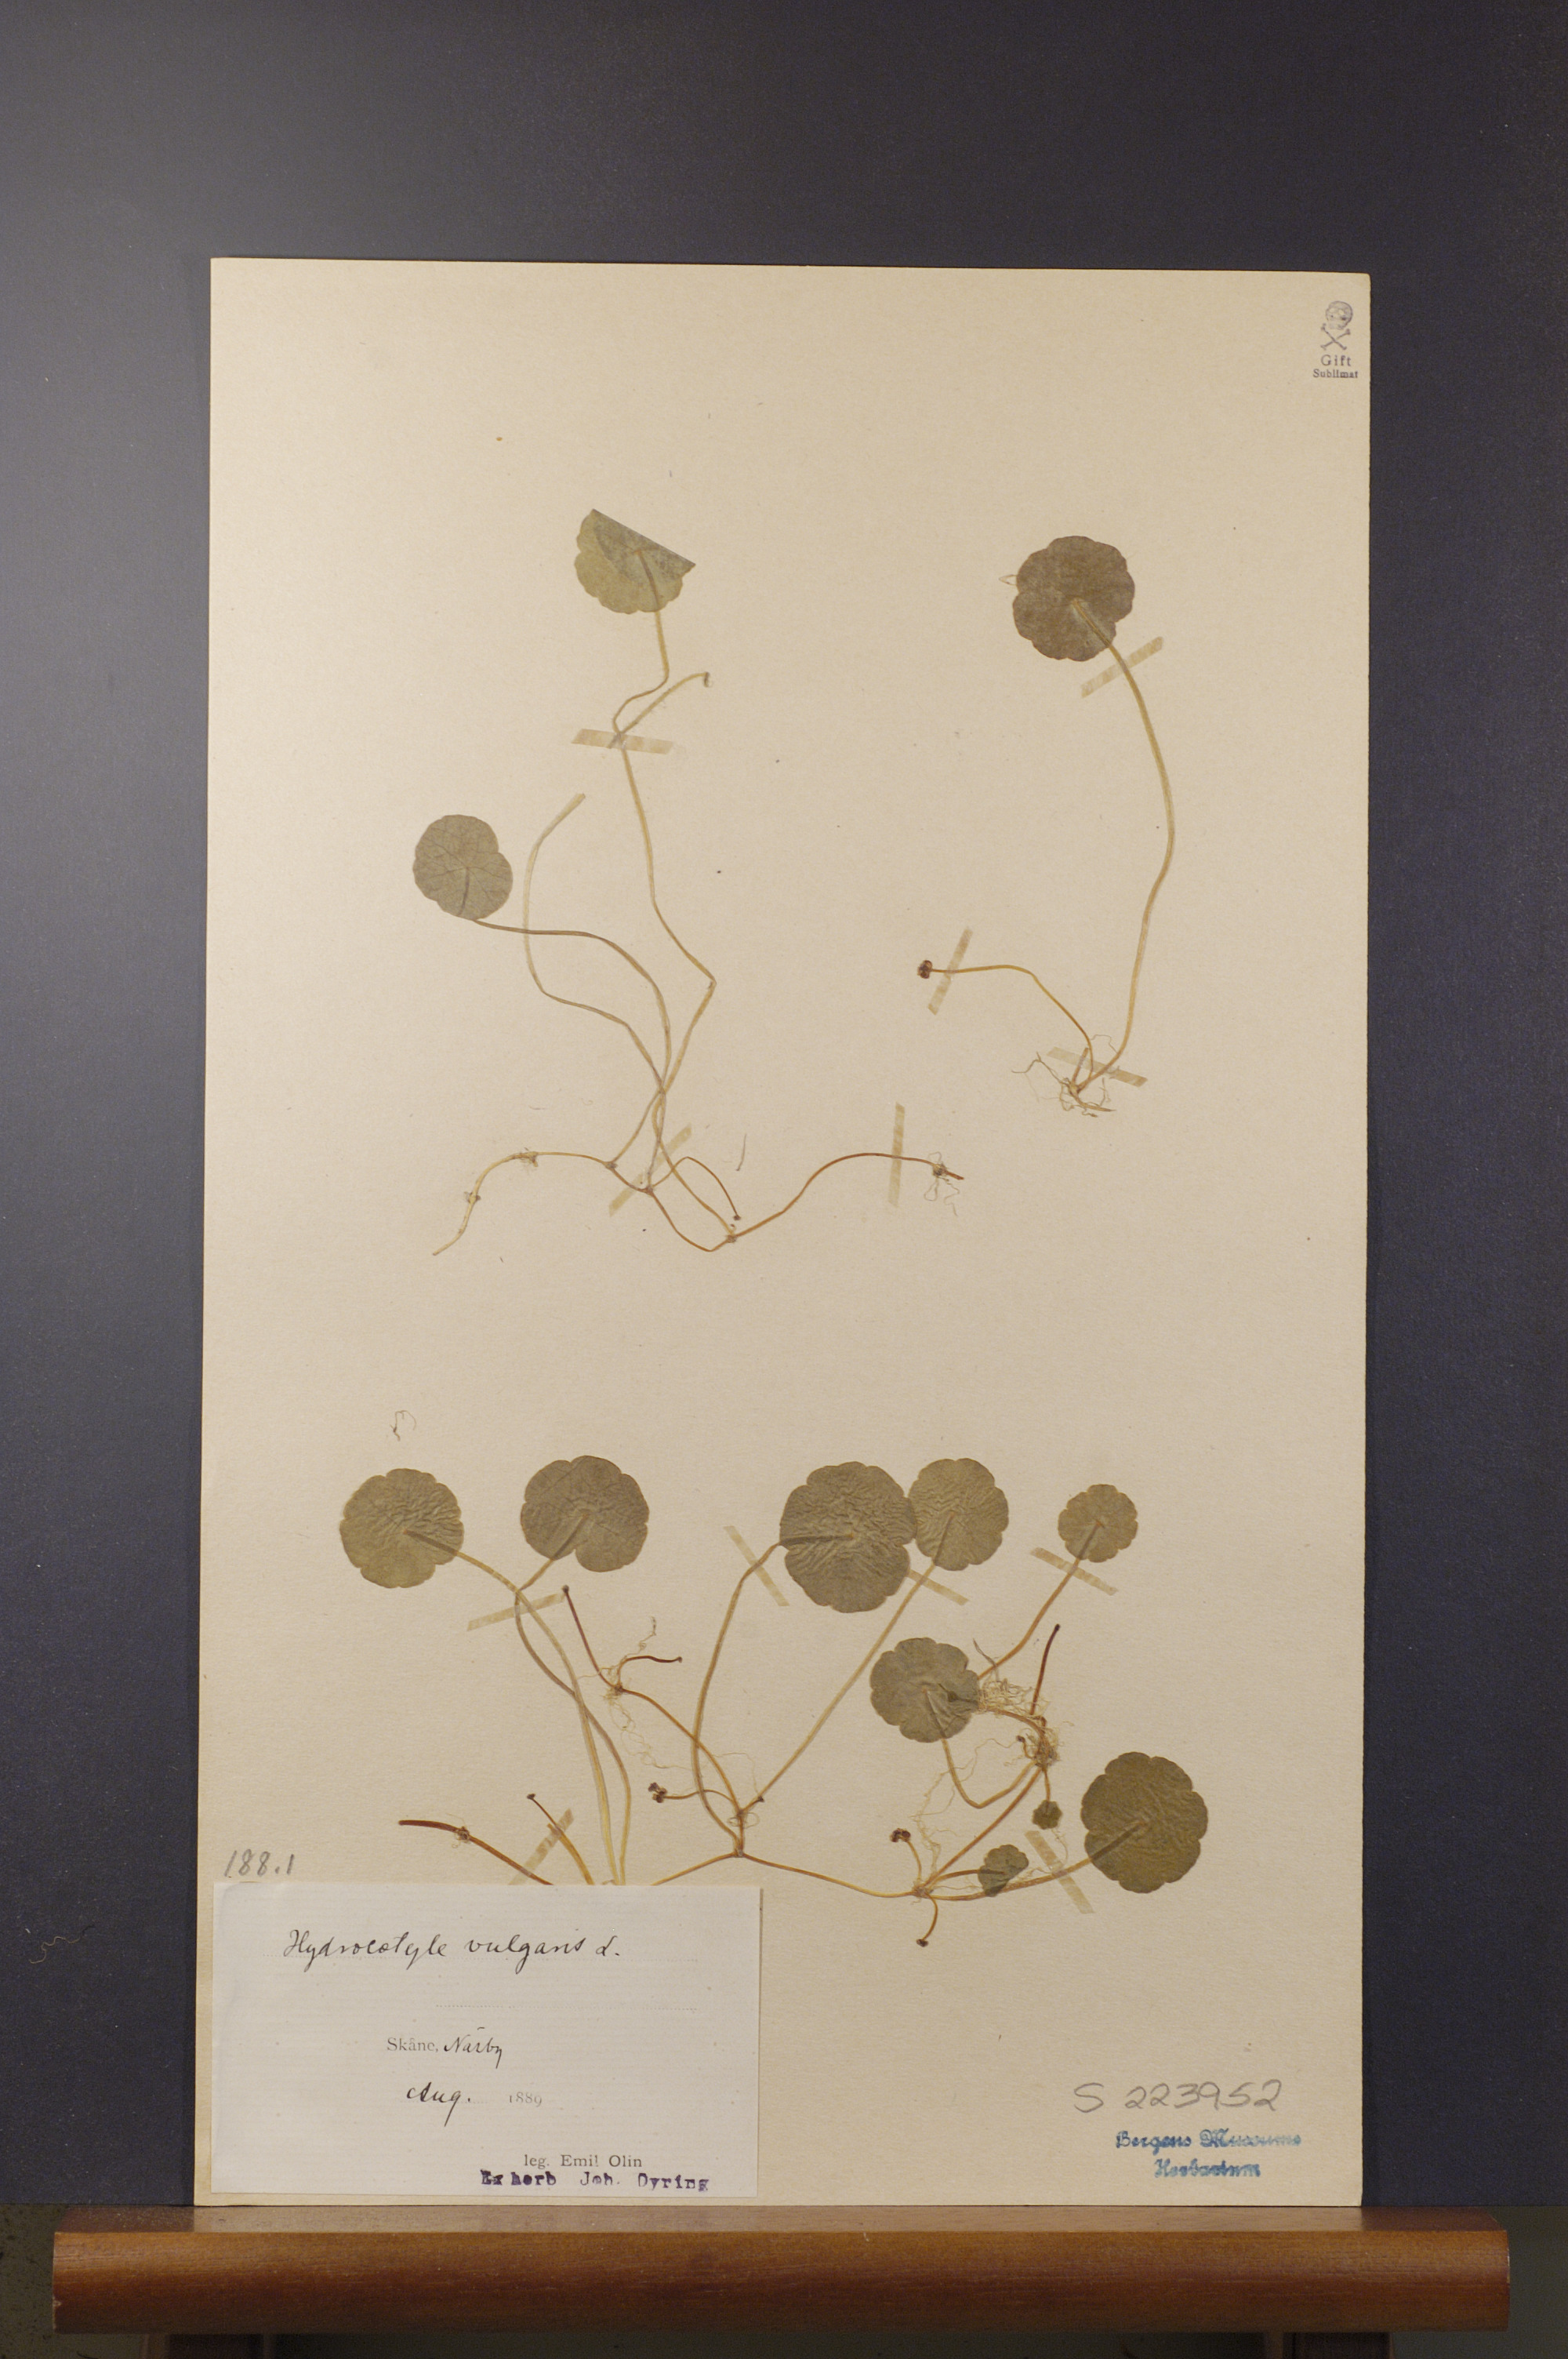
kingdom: Plantae
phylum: Tracheophyta
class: Magnoliopsida
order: Apiales
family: Araliaceae
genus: Hydrocotyle
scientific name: Hydrocotyle vulgaris
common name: Marsh pennywort
